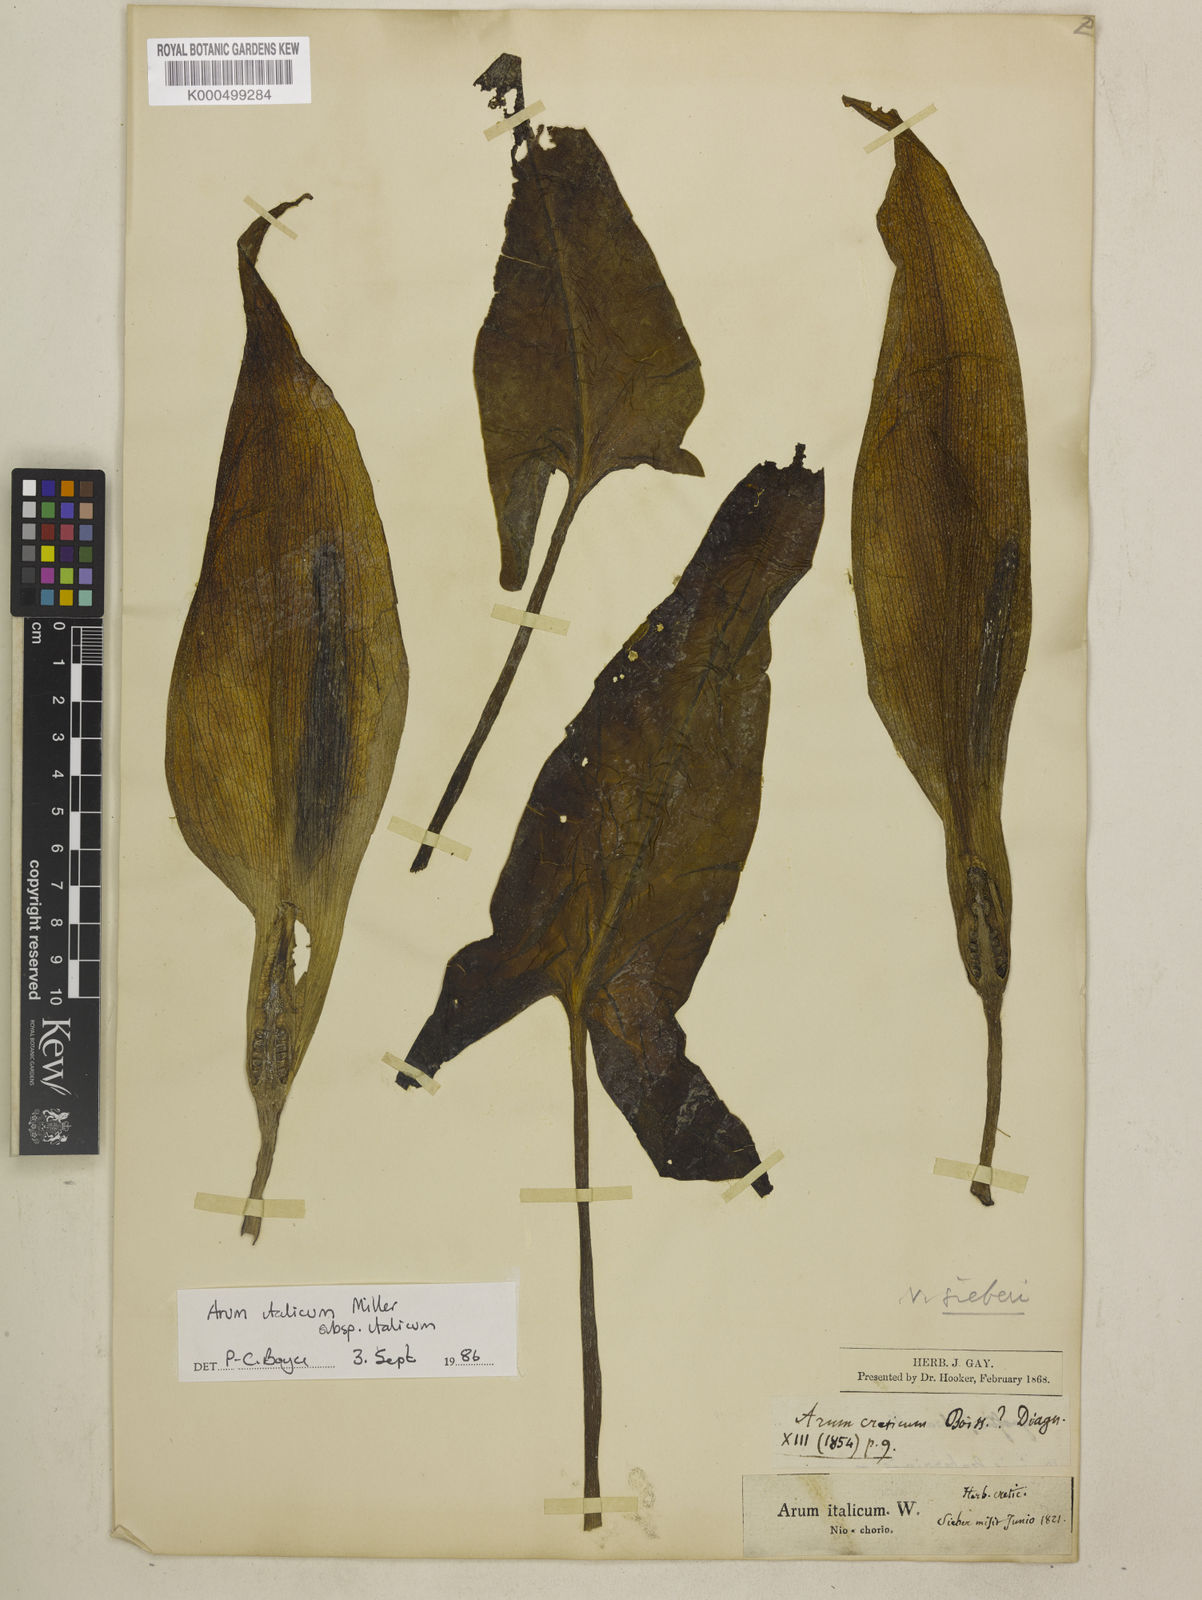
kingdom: Plantae
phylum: Tracheophyta
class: Liliopsida
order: Alismatales
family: Araceae
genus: Arum
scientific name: Arum italicum
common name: Italian lords-and-ladies
